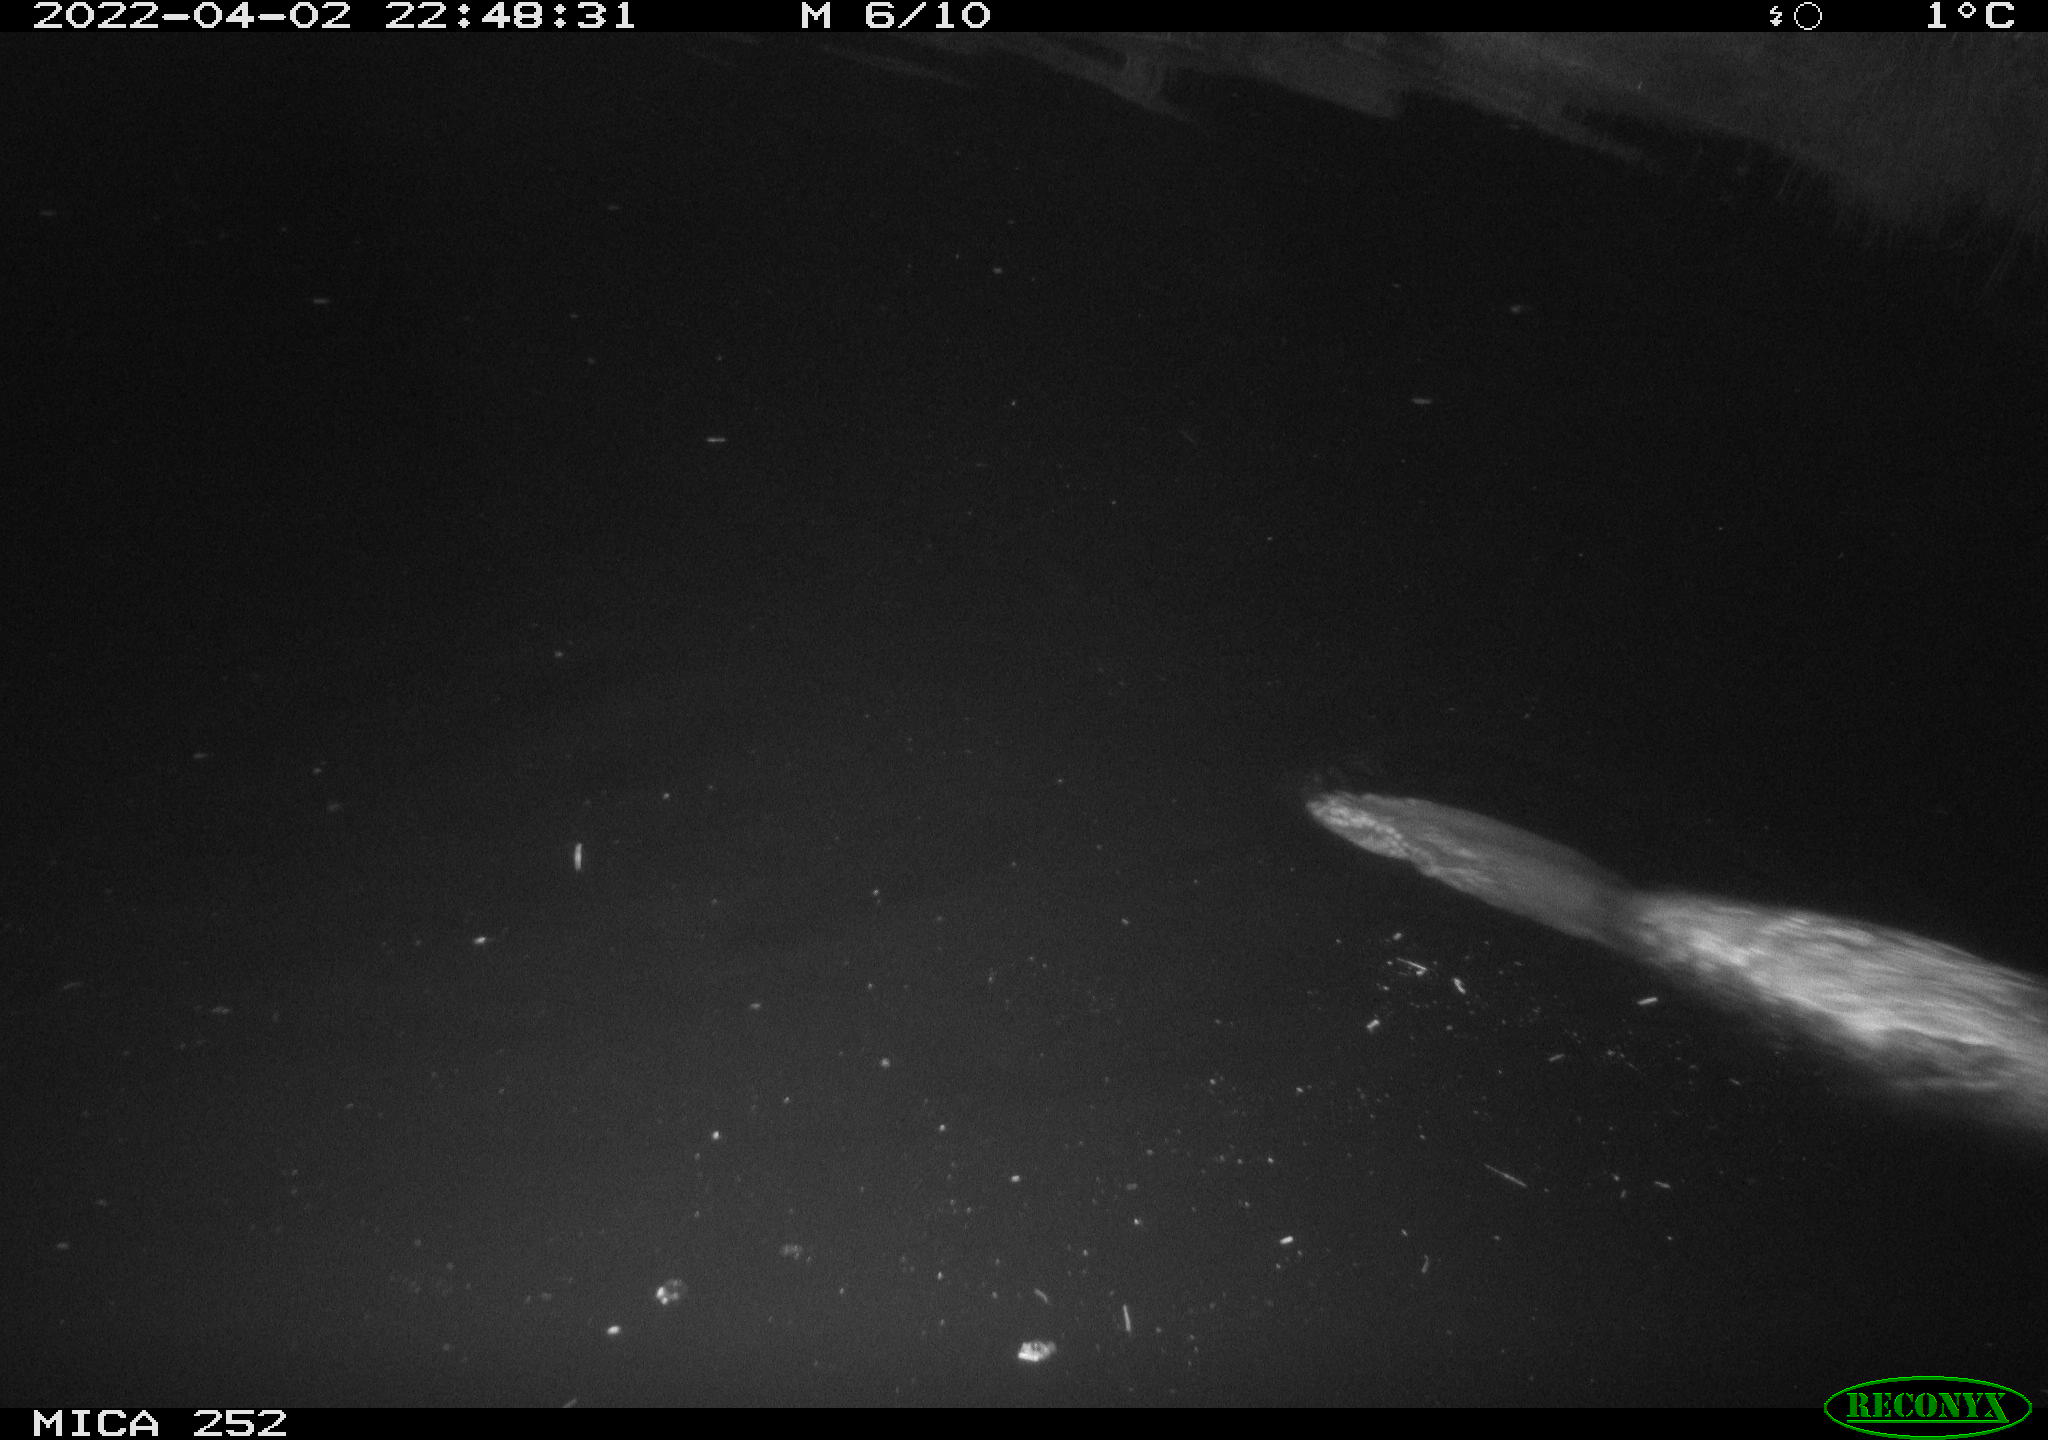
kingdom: Animalia
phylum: Chordata
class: Mammalia
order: Rodentia
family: Castoridae
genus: Castor
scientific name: Castor fiber
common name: Eurasian beaver
